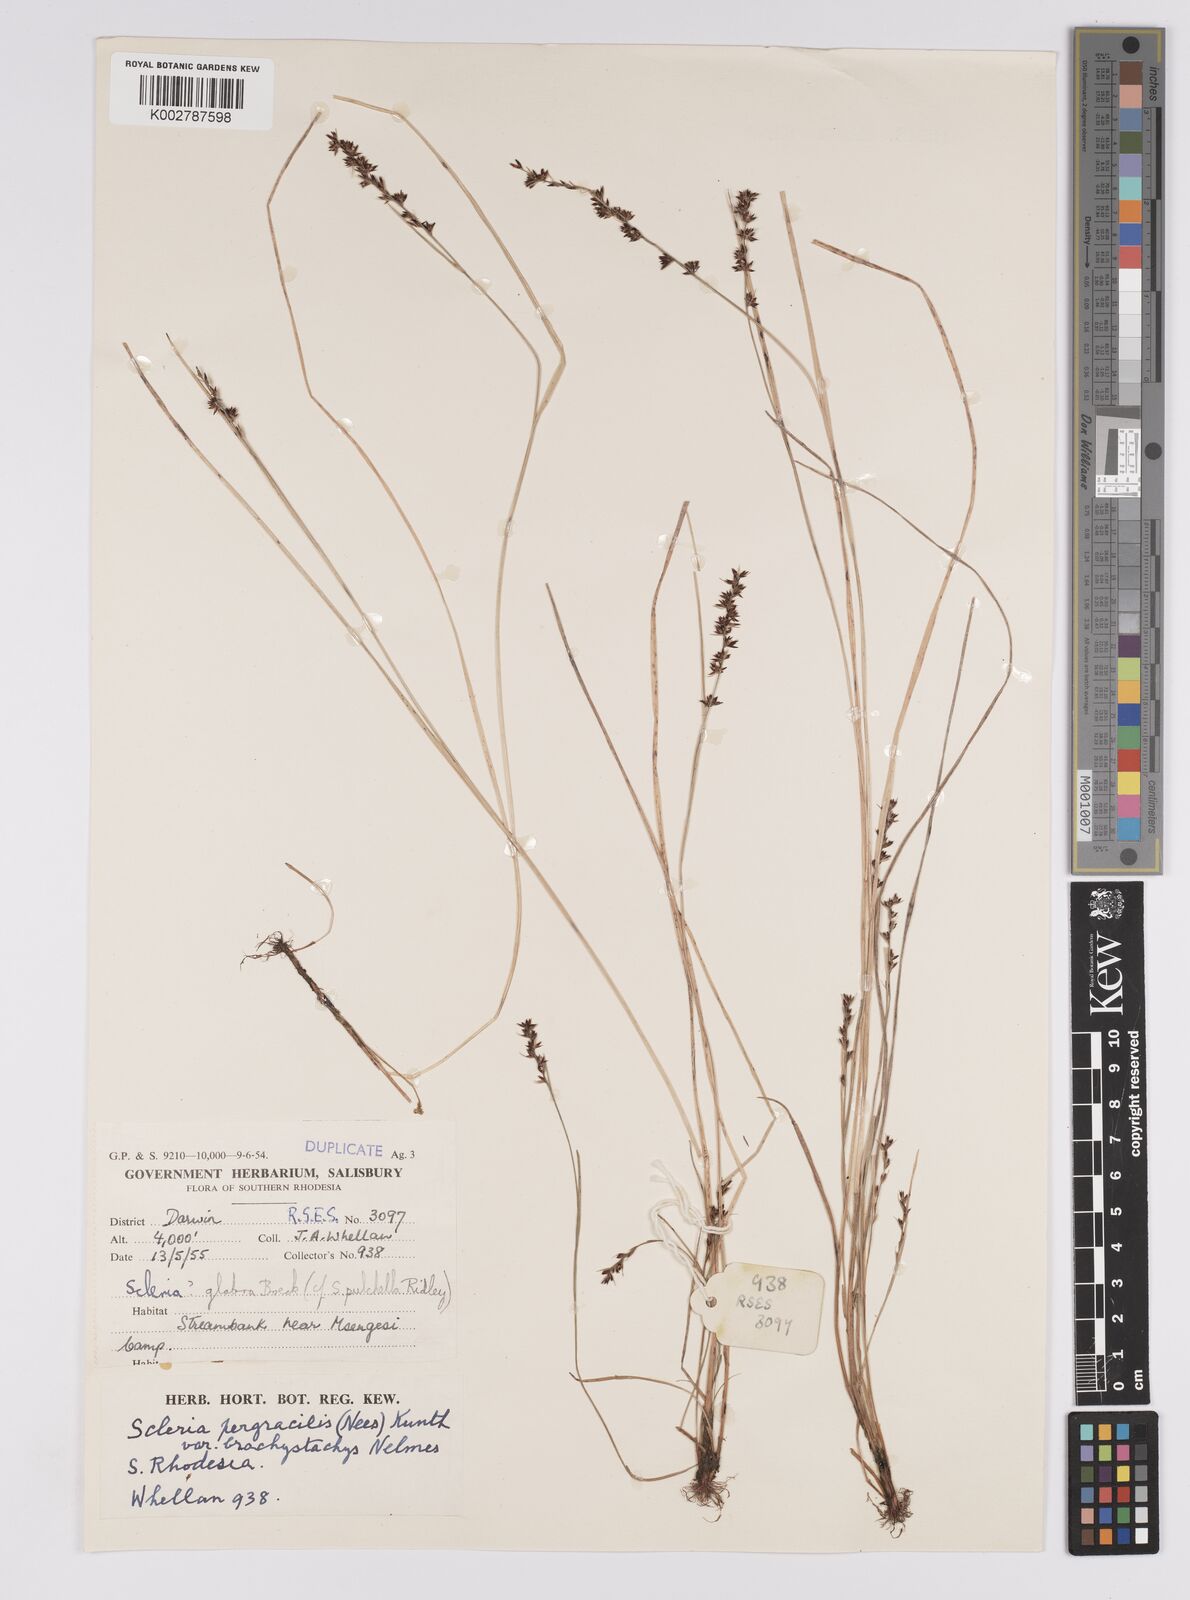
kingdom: Plantae
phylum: Tracheophyta
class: Liliopsida
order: Poales
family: Cyperaceae
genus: Scleria
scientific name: Scleria pergracilis
